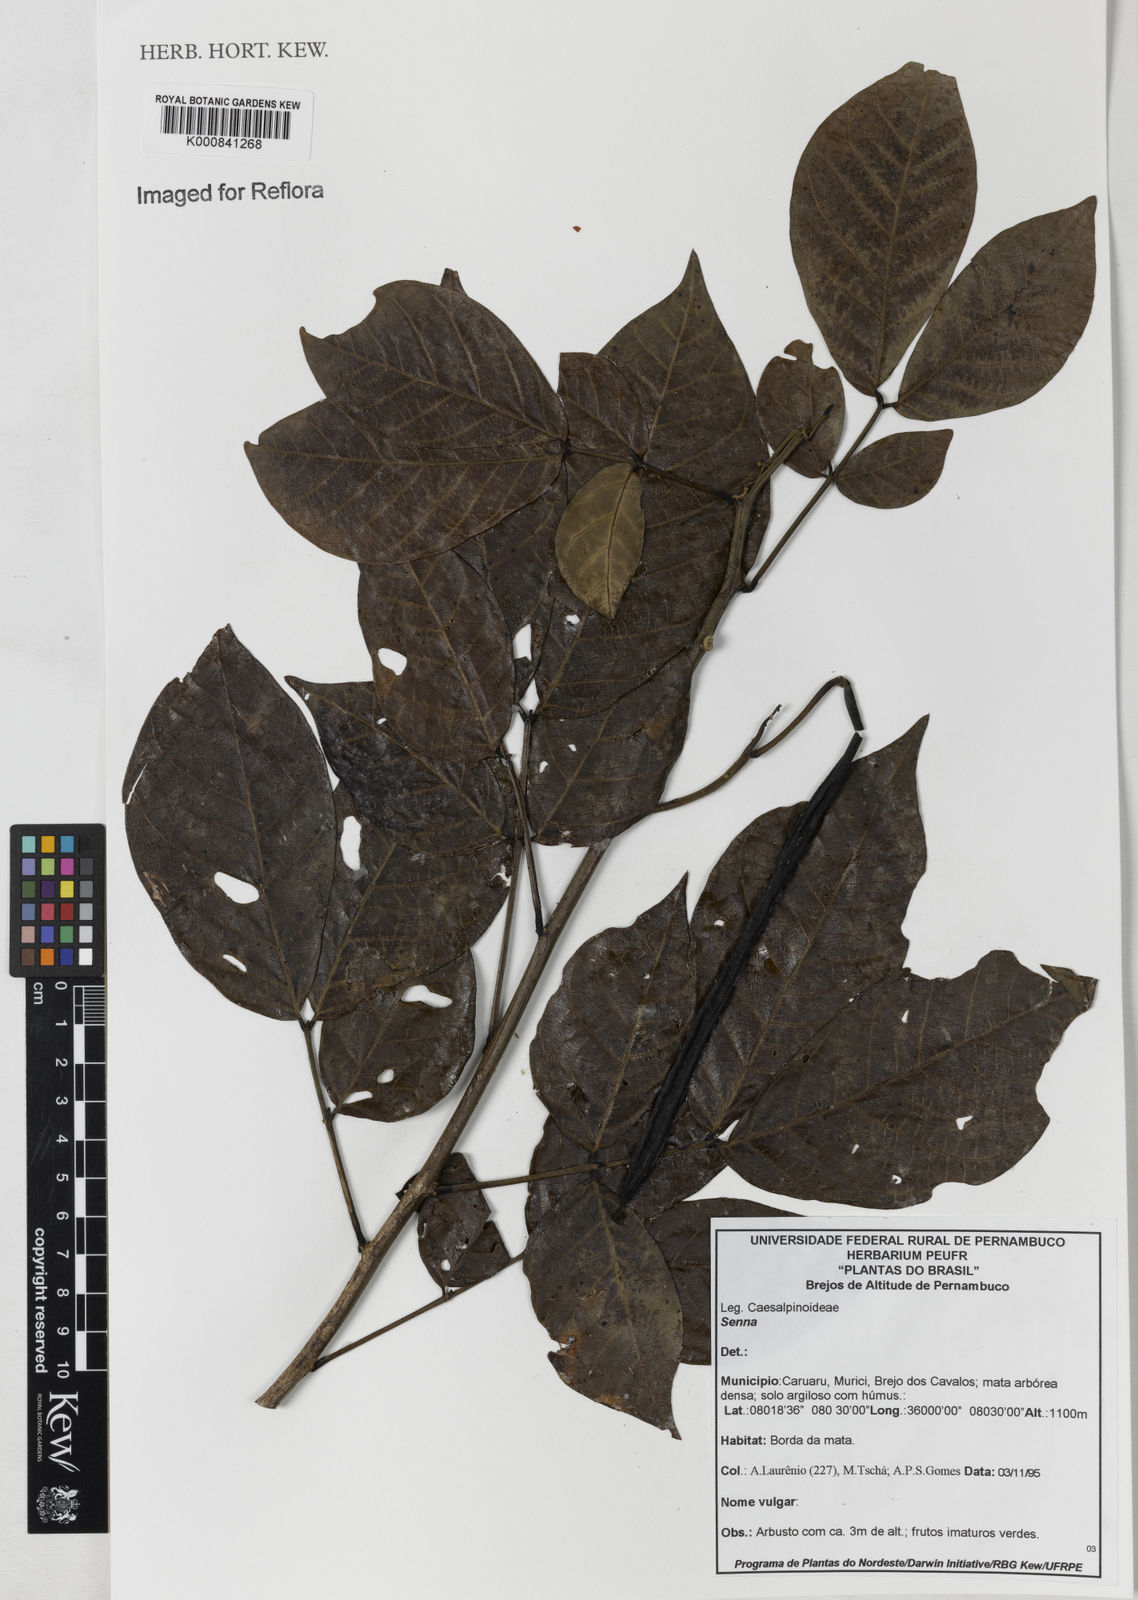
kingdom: Plantae
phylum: Tracheophyta
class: Magnoliopsida
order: Fabales
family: Fabaceae
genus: Senna
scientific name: Senna quinquangulata
